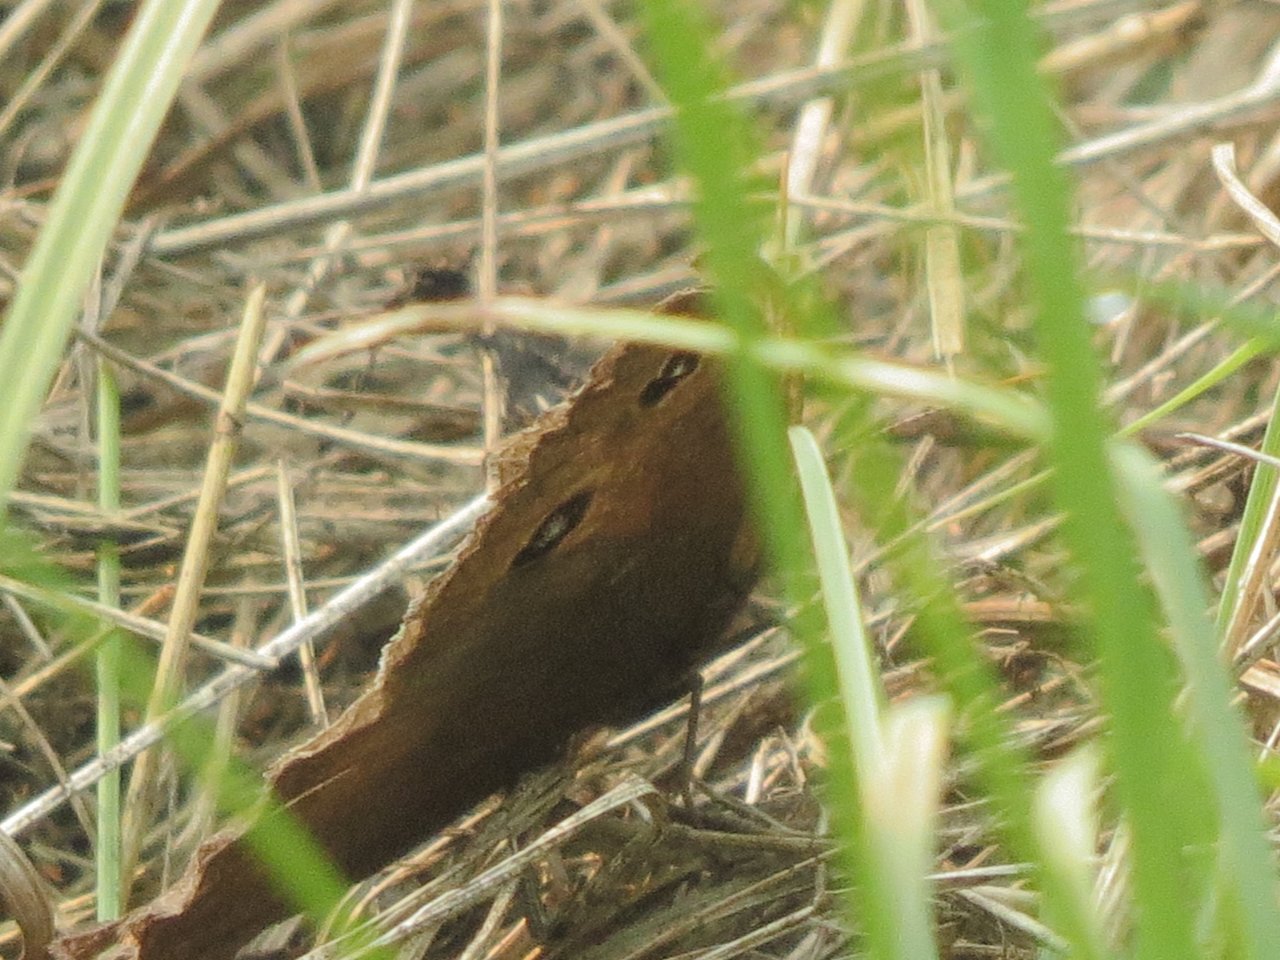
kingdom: Animalia
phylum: Arthropoda
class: Insecta
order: Lepidoptera
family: Nymphalidae
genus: Cercyonis
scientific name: Cercyonis pegala
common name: Common Wood-Nymph
